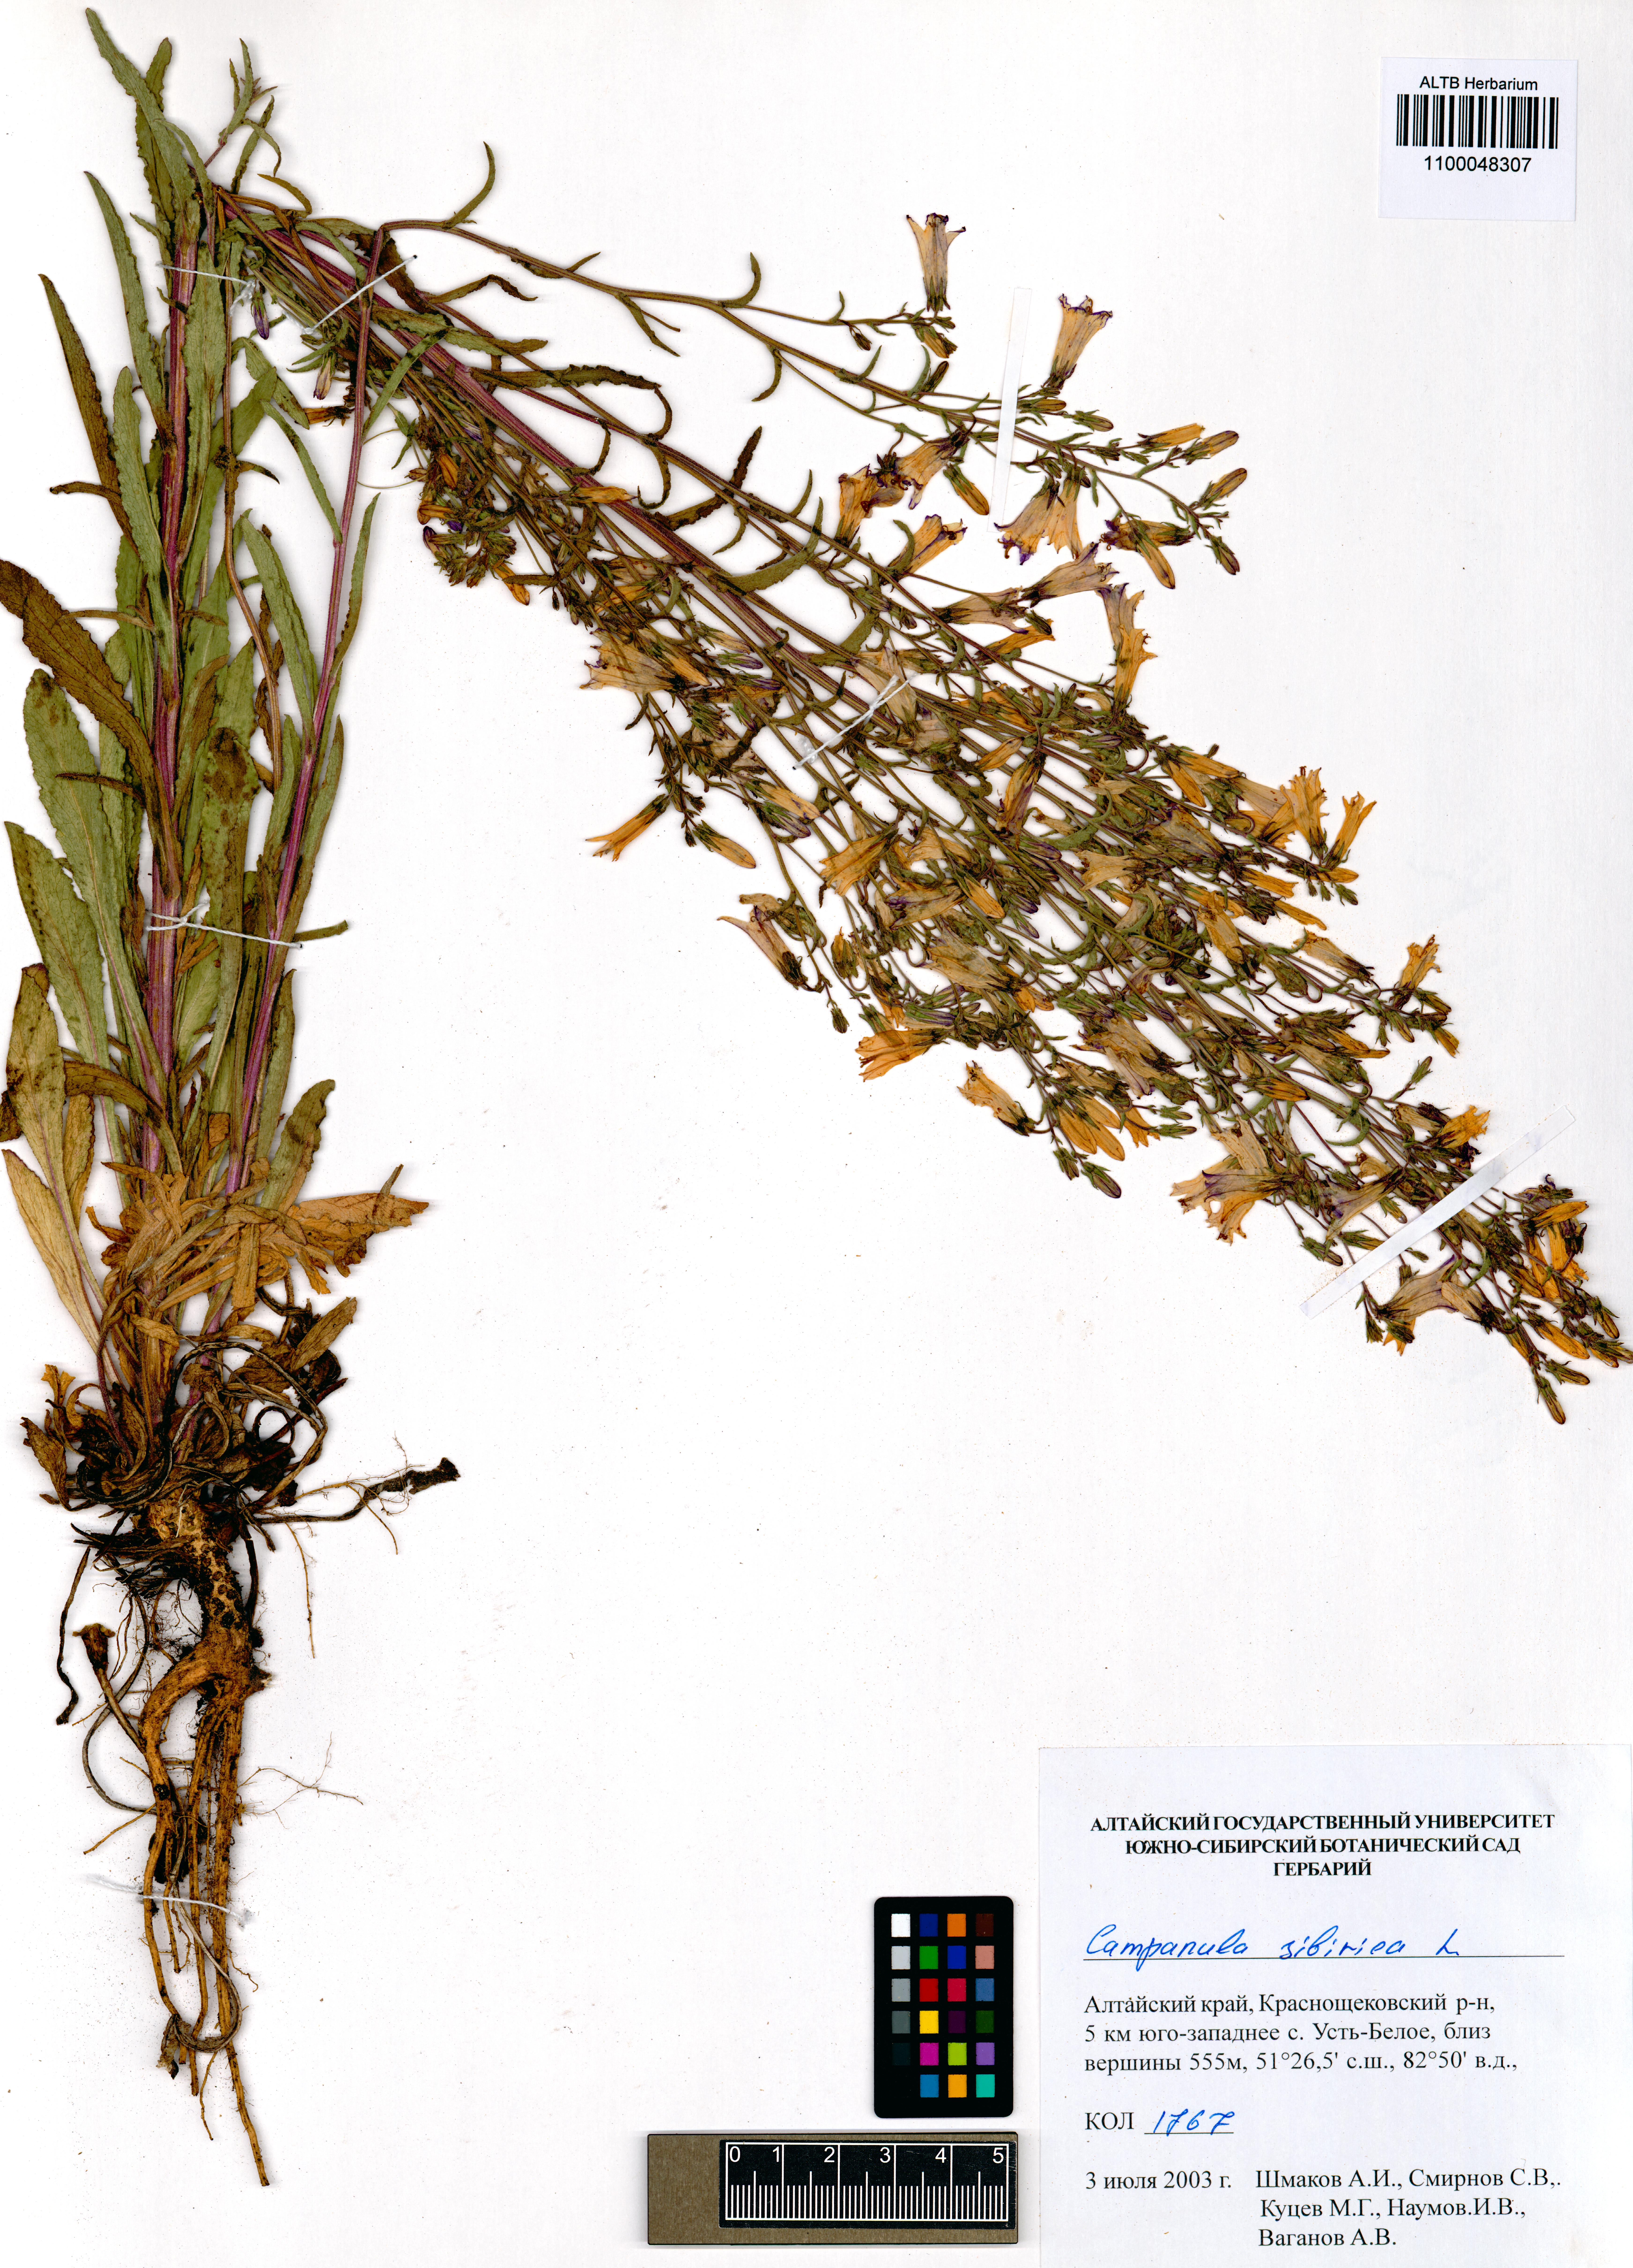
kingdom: Plantae
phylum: Tracheophyta
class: Magnoliopsida
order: Asterales
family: Campanulaceae
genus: Campanula
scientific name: Campanula sibirica
